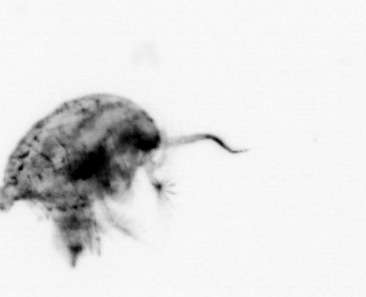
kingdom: Animalia
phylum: Arthropoda
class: Copepoda
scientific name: Copepoda
